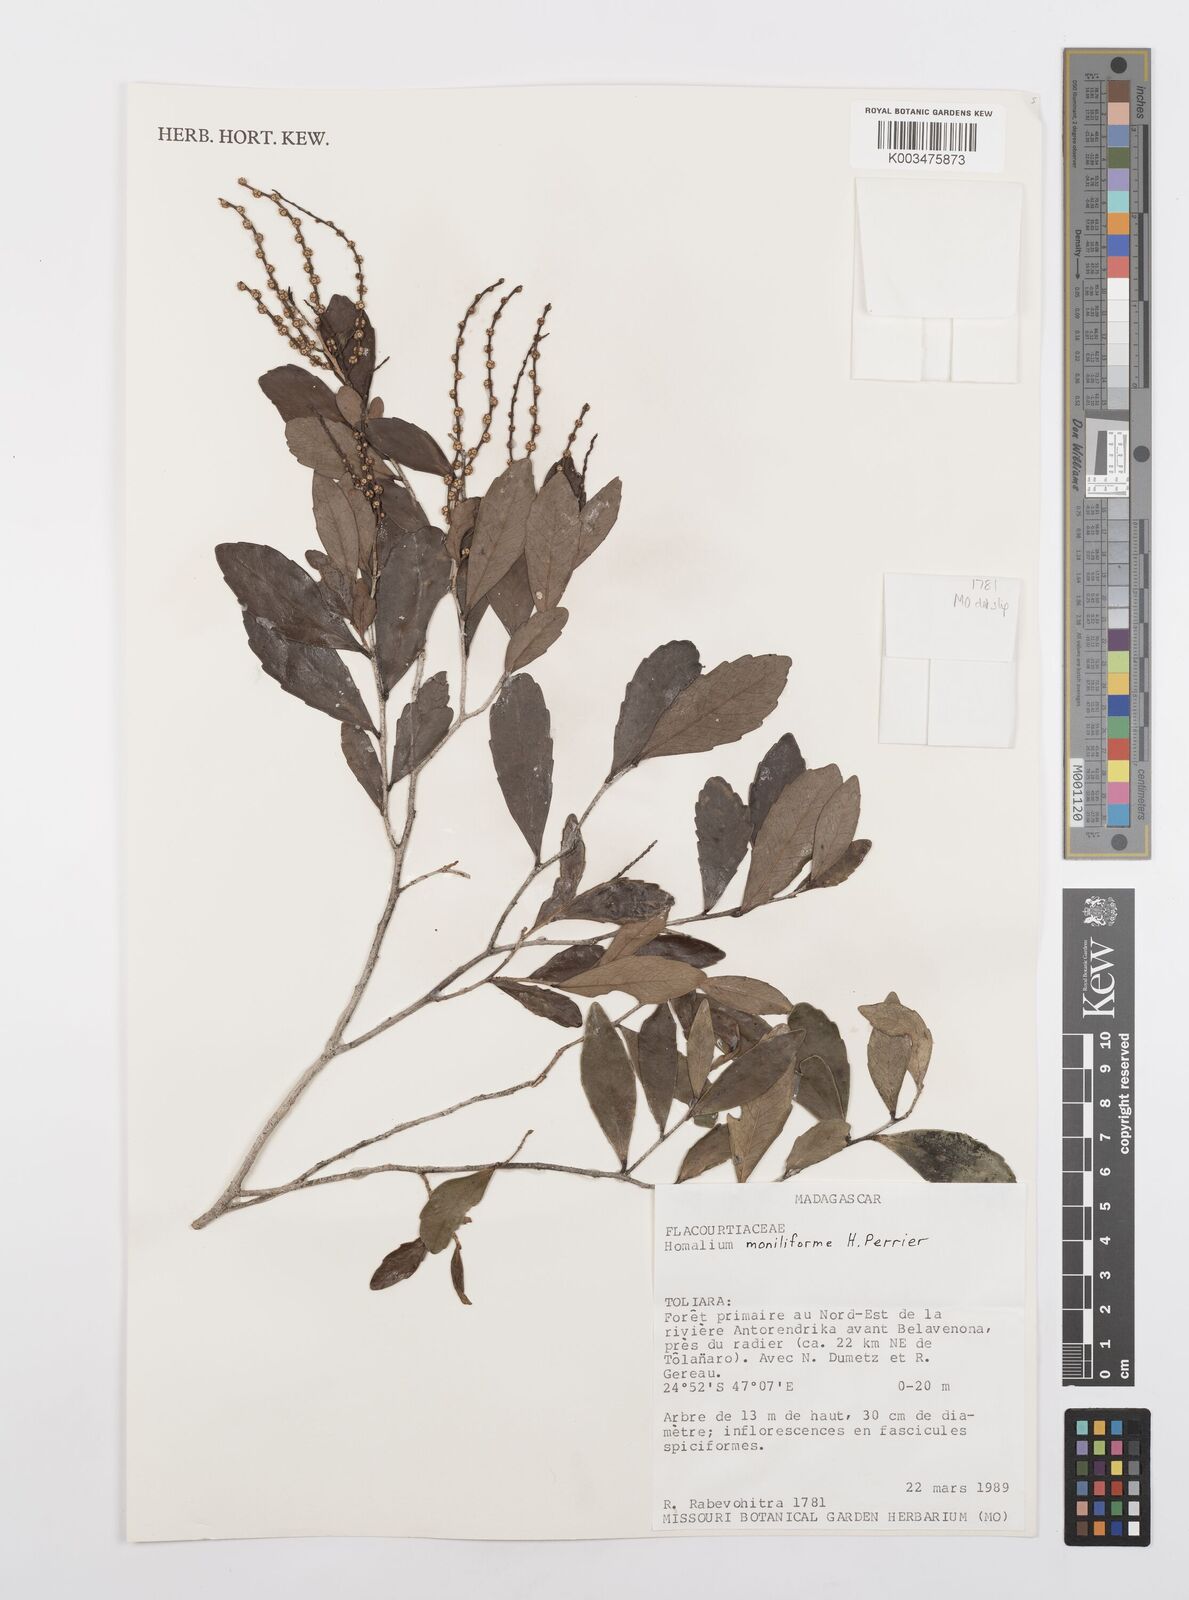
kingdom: Plantae
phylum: Tracheophyta
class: Magnoliopsida
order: Malpighiales
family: Salicaceae
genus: Homalium
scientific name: Homalium moniliforme
